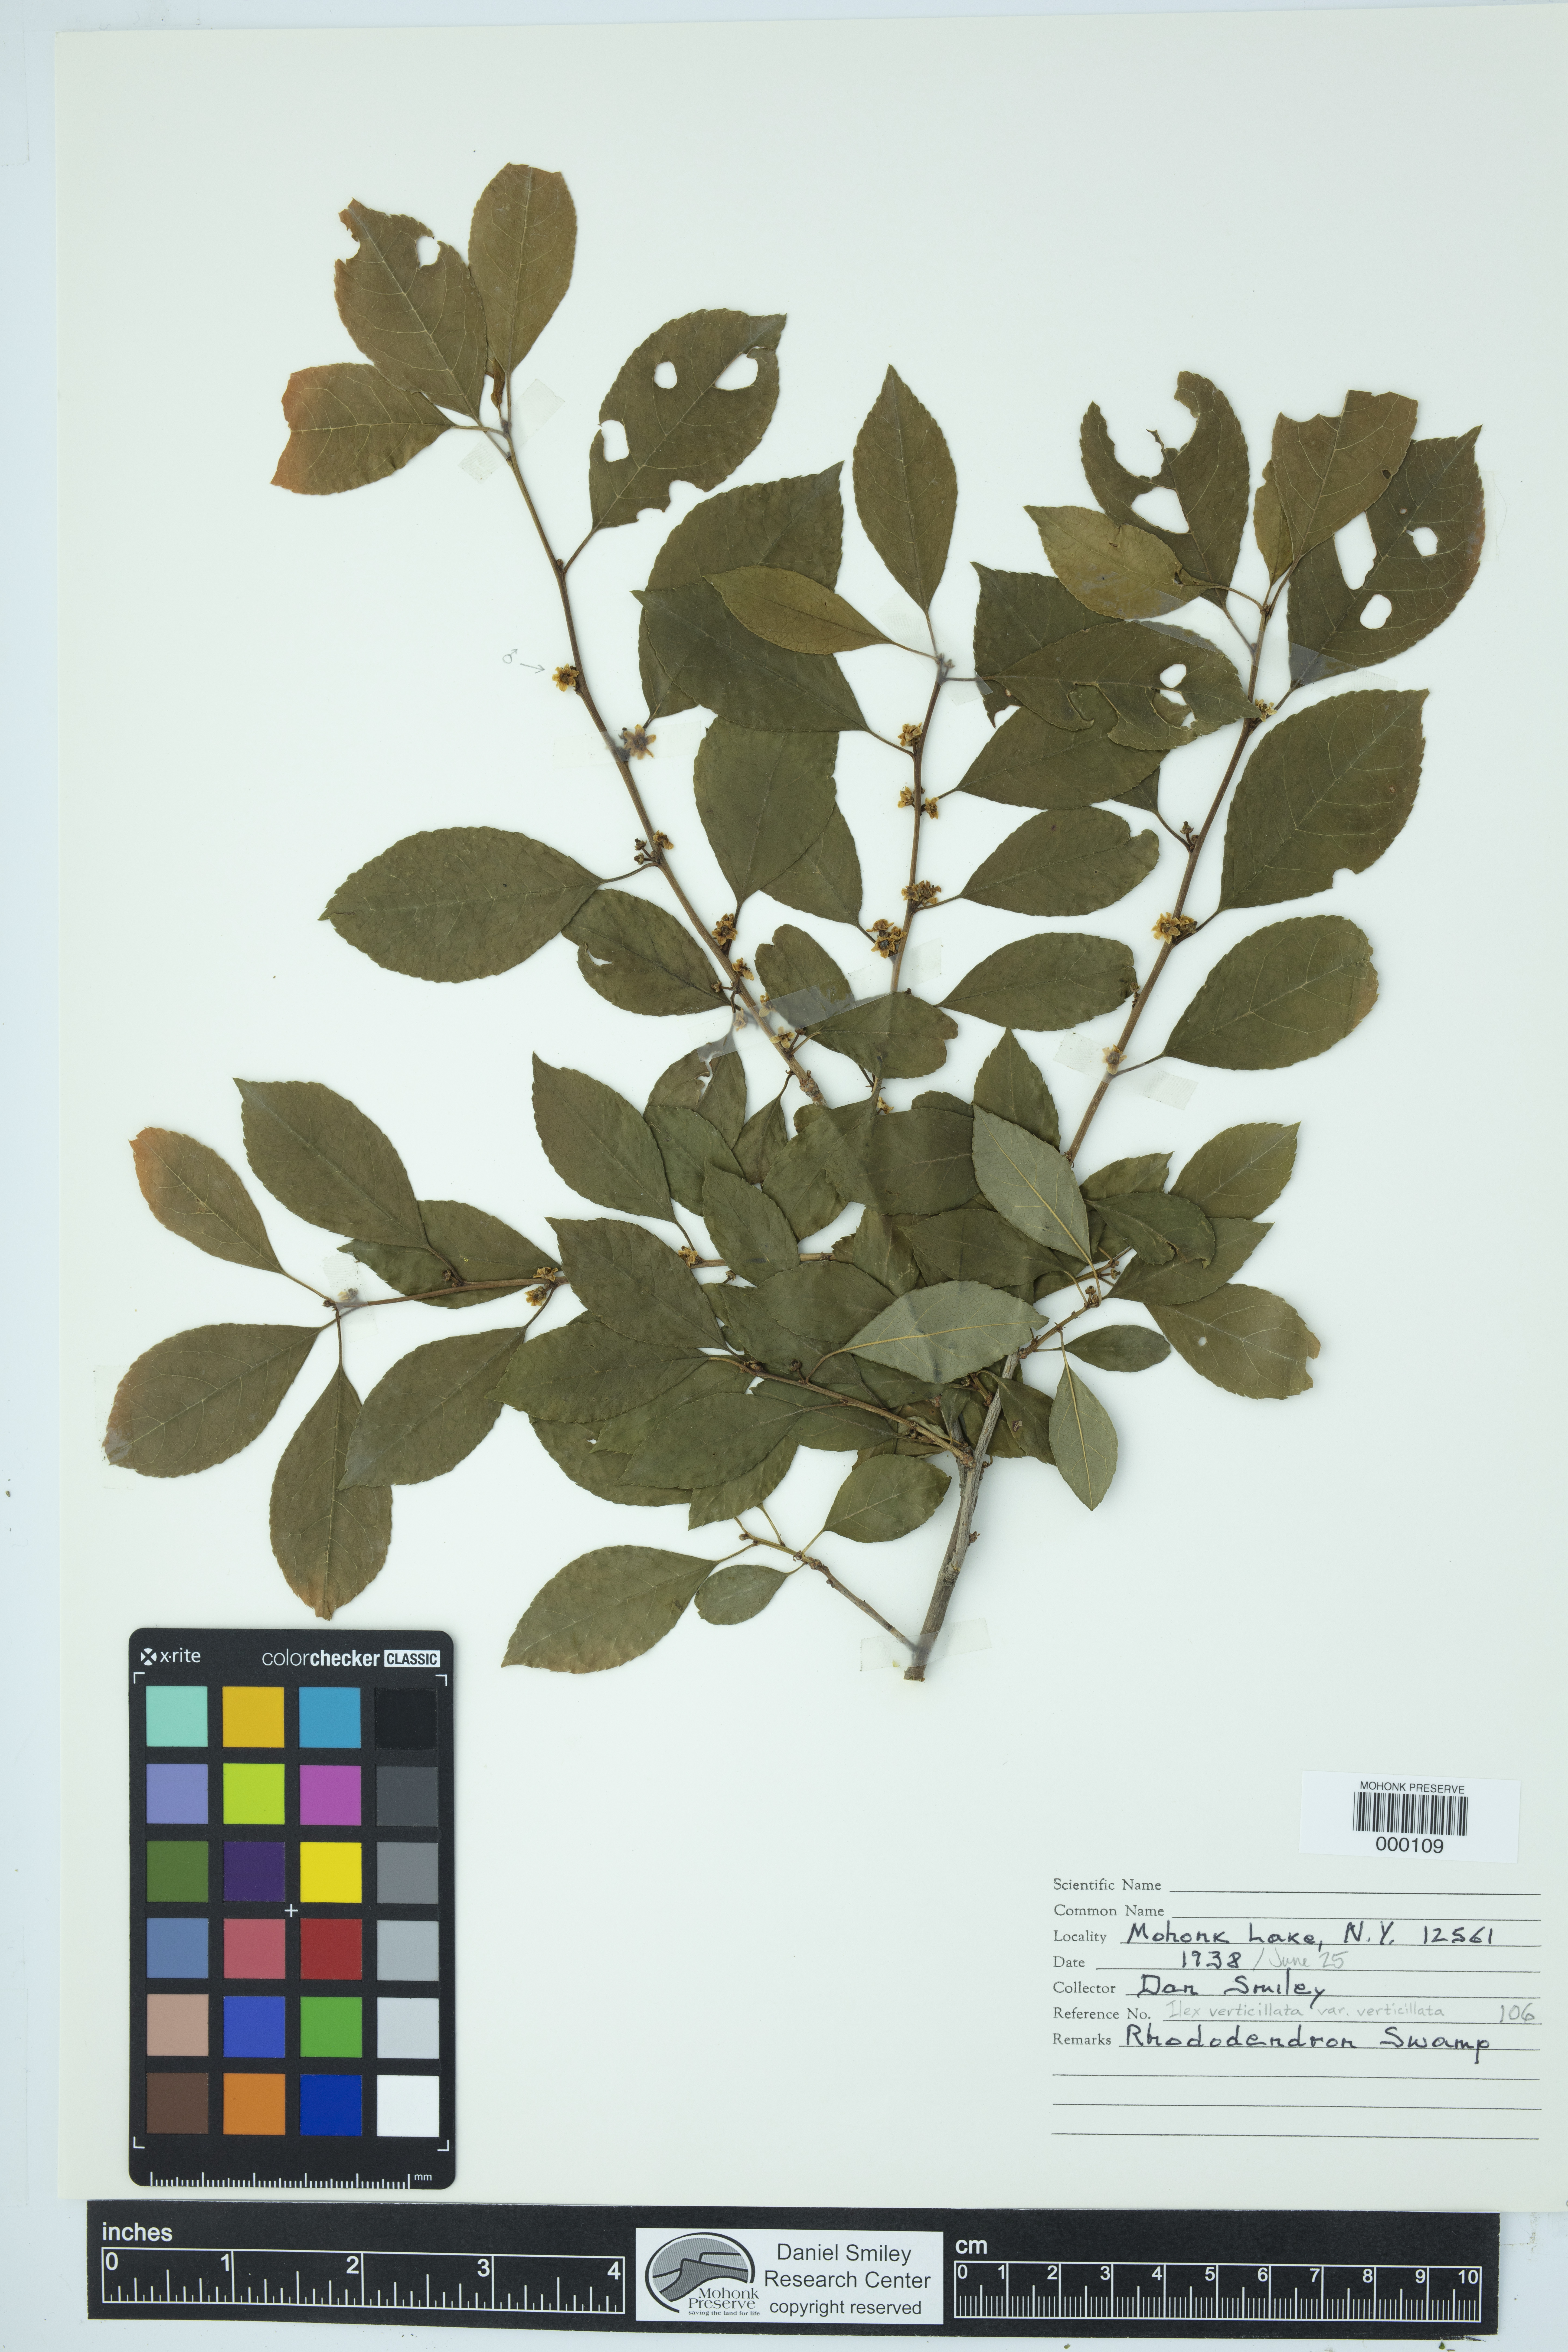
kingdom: Plantae
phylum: Tracheophyta
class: Magnoliopsida
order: Aquifoliales
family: Aquifoliaceae
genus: Ilex
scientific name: Ilex verticillata
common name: Virginia winterberry
